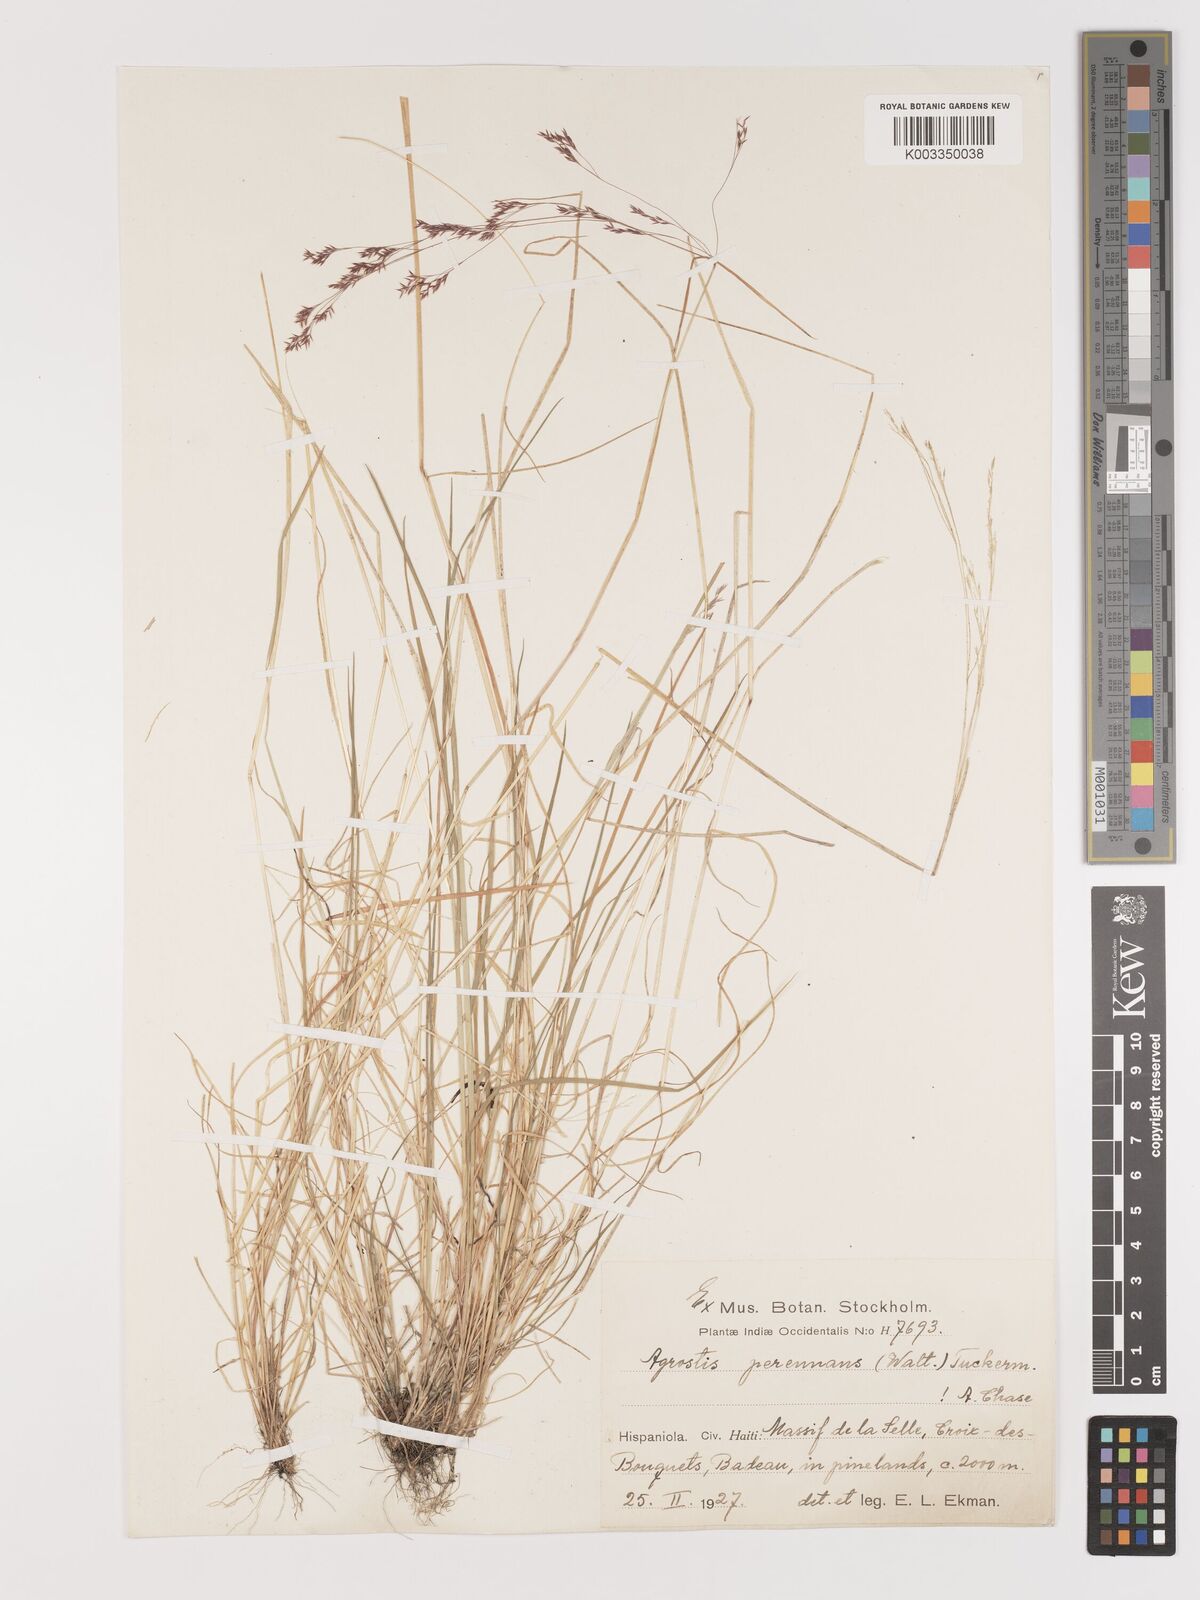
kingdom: Plantae
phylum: Tracheophyta
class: Liliopsida
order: Poales
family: Poaceae
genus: Agrostis
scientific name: Agrostis perennans
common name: Autumn bent
